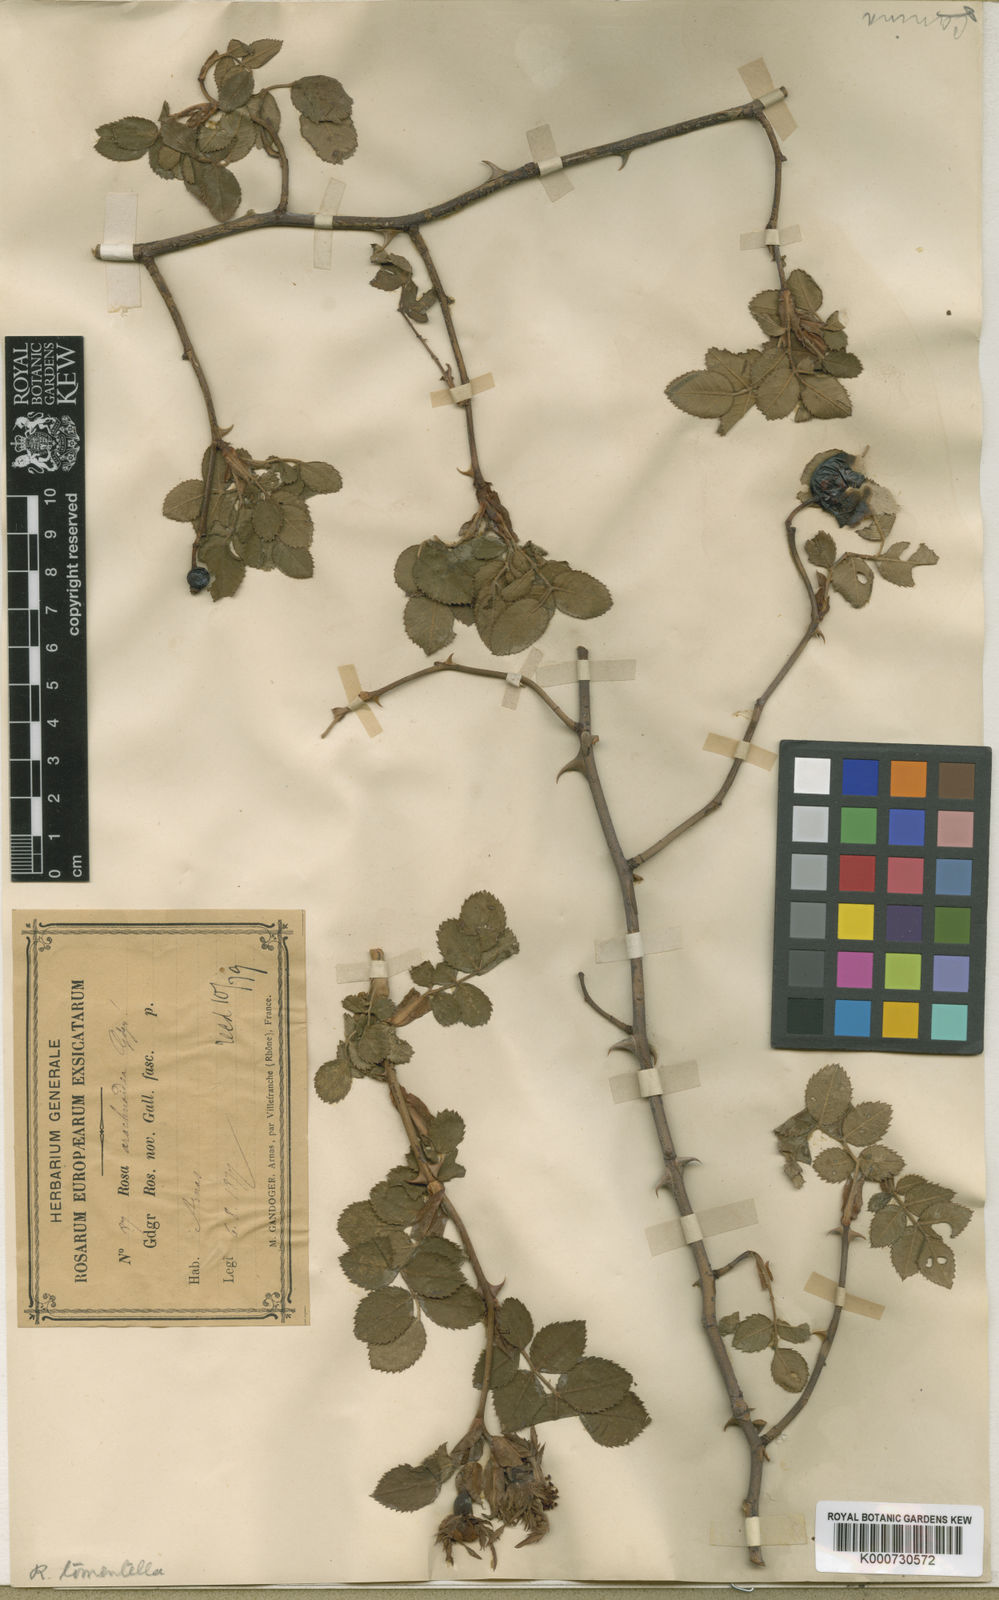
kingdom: Plantae
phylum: Tracheophyta
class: Magnoliopsida
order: Rosales
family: Rosaceae
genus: Rosa
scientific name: Rosa
